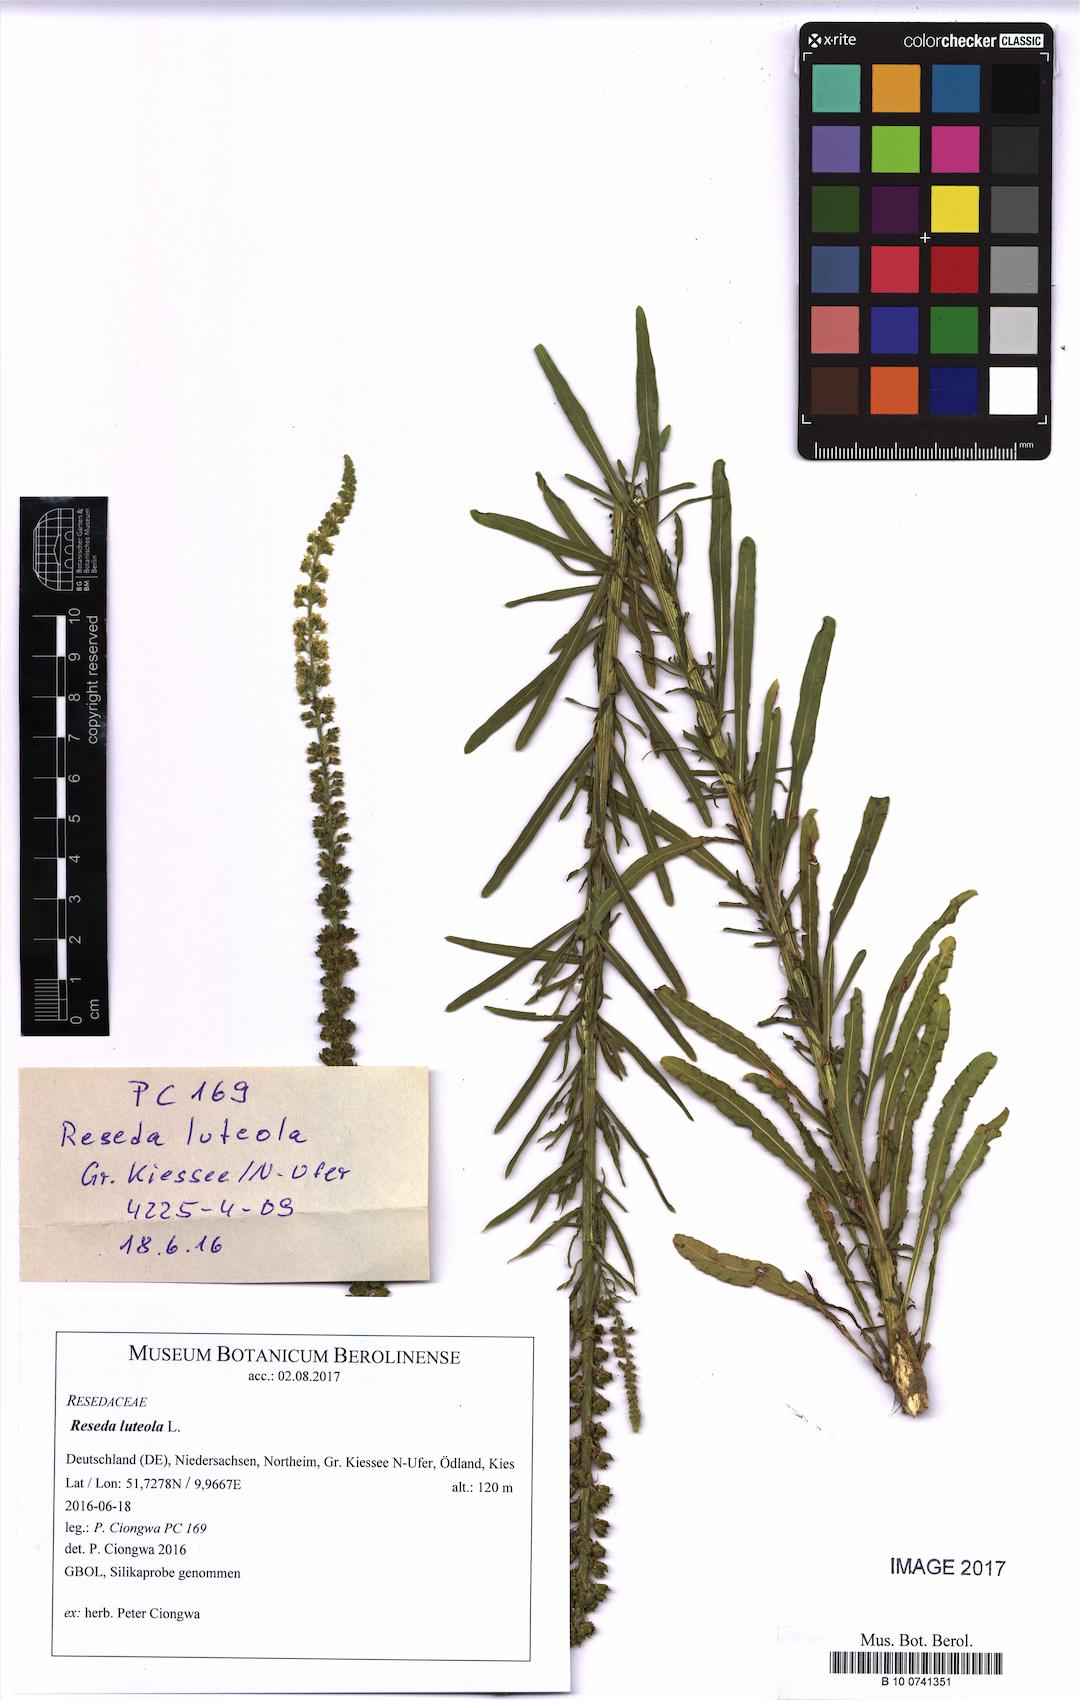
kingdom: Plantae
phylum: Tracheophyta
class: Magnoliopsida
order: Brassicales
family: Resedaceae
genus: Reseda
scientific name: Reseda luteola
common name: Weld
